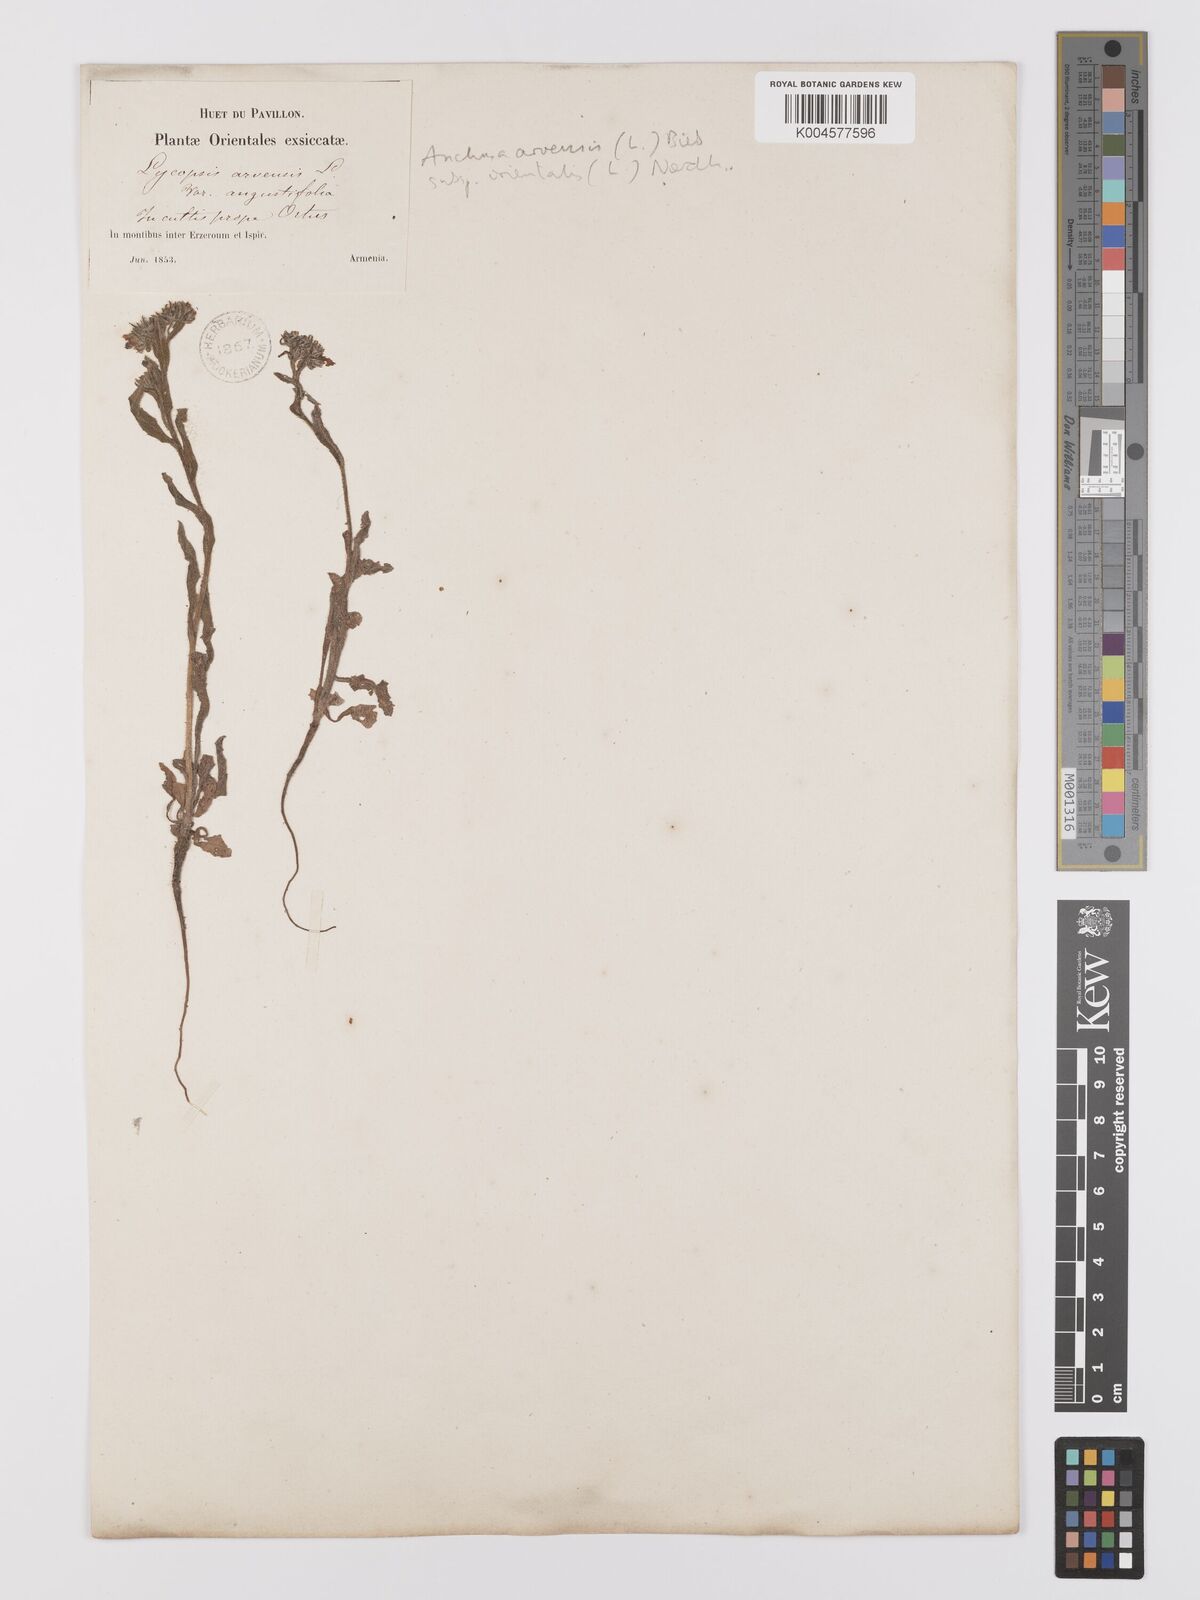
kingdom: Plantae
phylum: Tracheophyta
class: Magnoliopsida
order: Boraginales
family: Boraginaceae
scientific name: Boraginaceae
